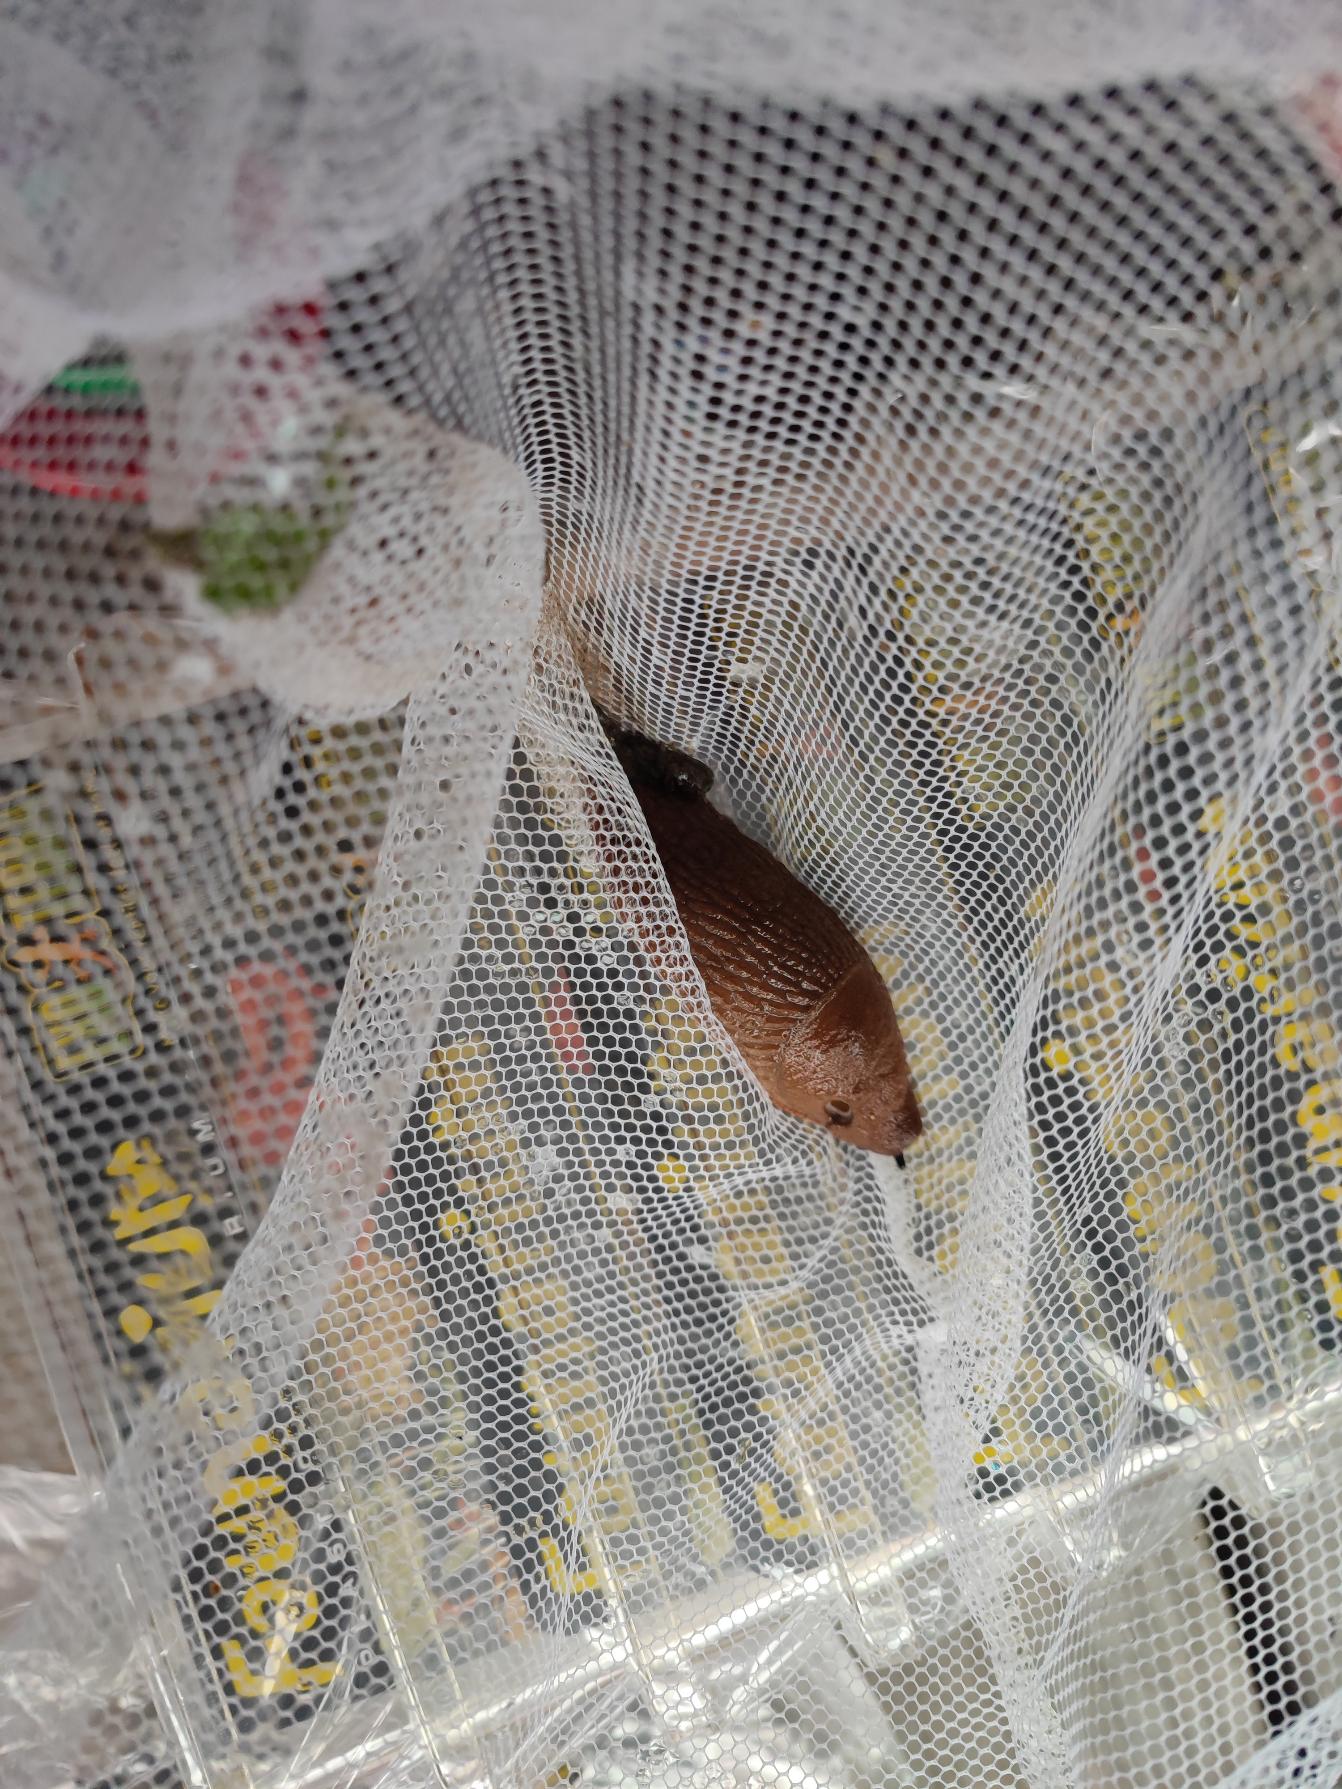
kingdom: Animalia
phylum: Mollusca
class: Gastropoda
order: Stylommatophora
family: Arionidae
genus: Arion
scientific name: Arion
